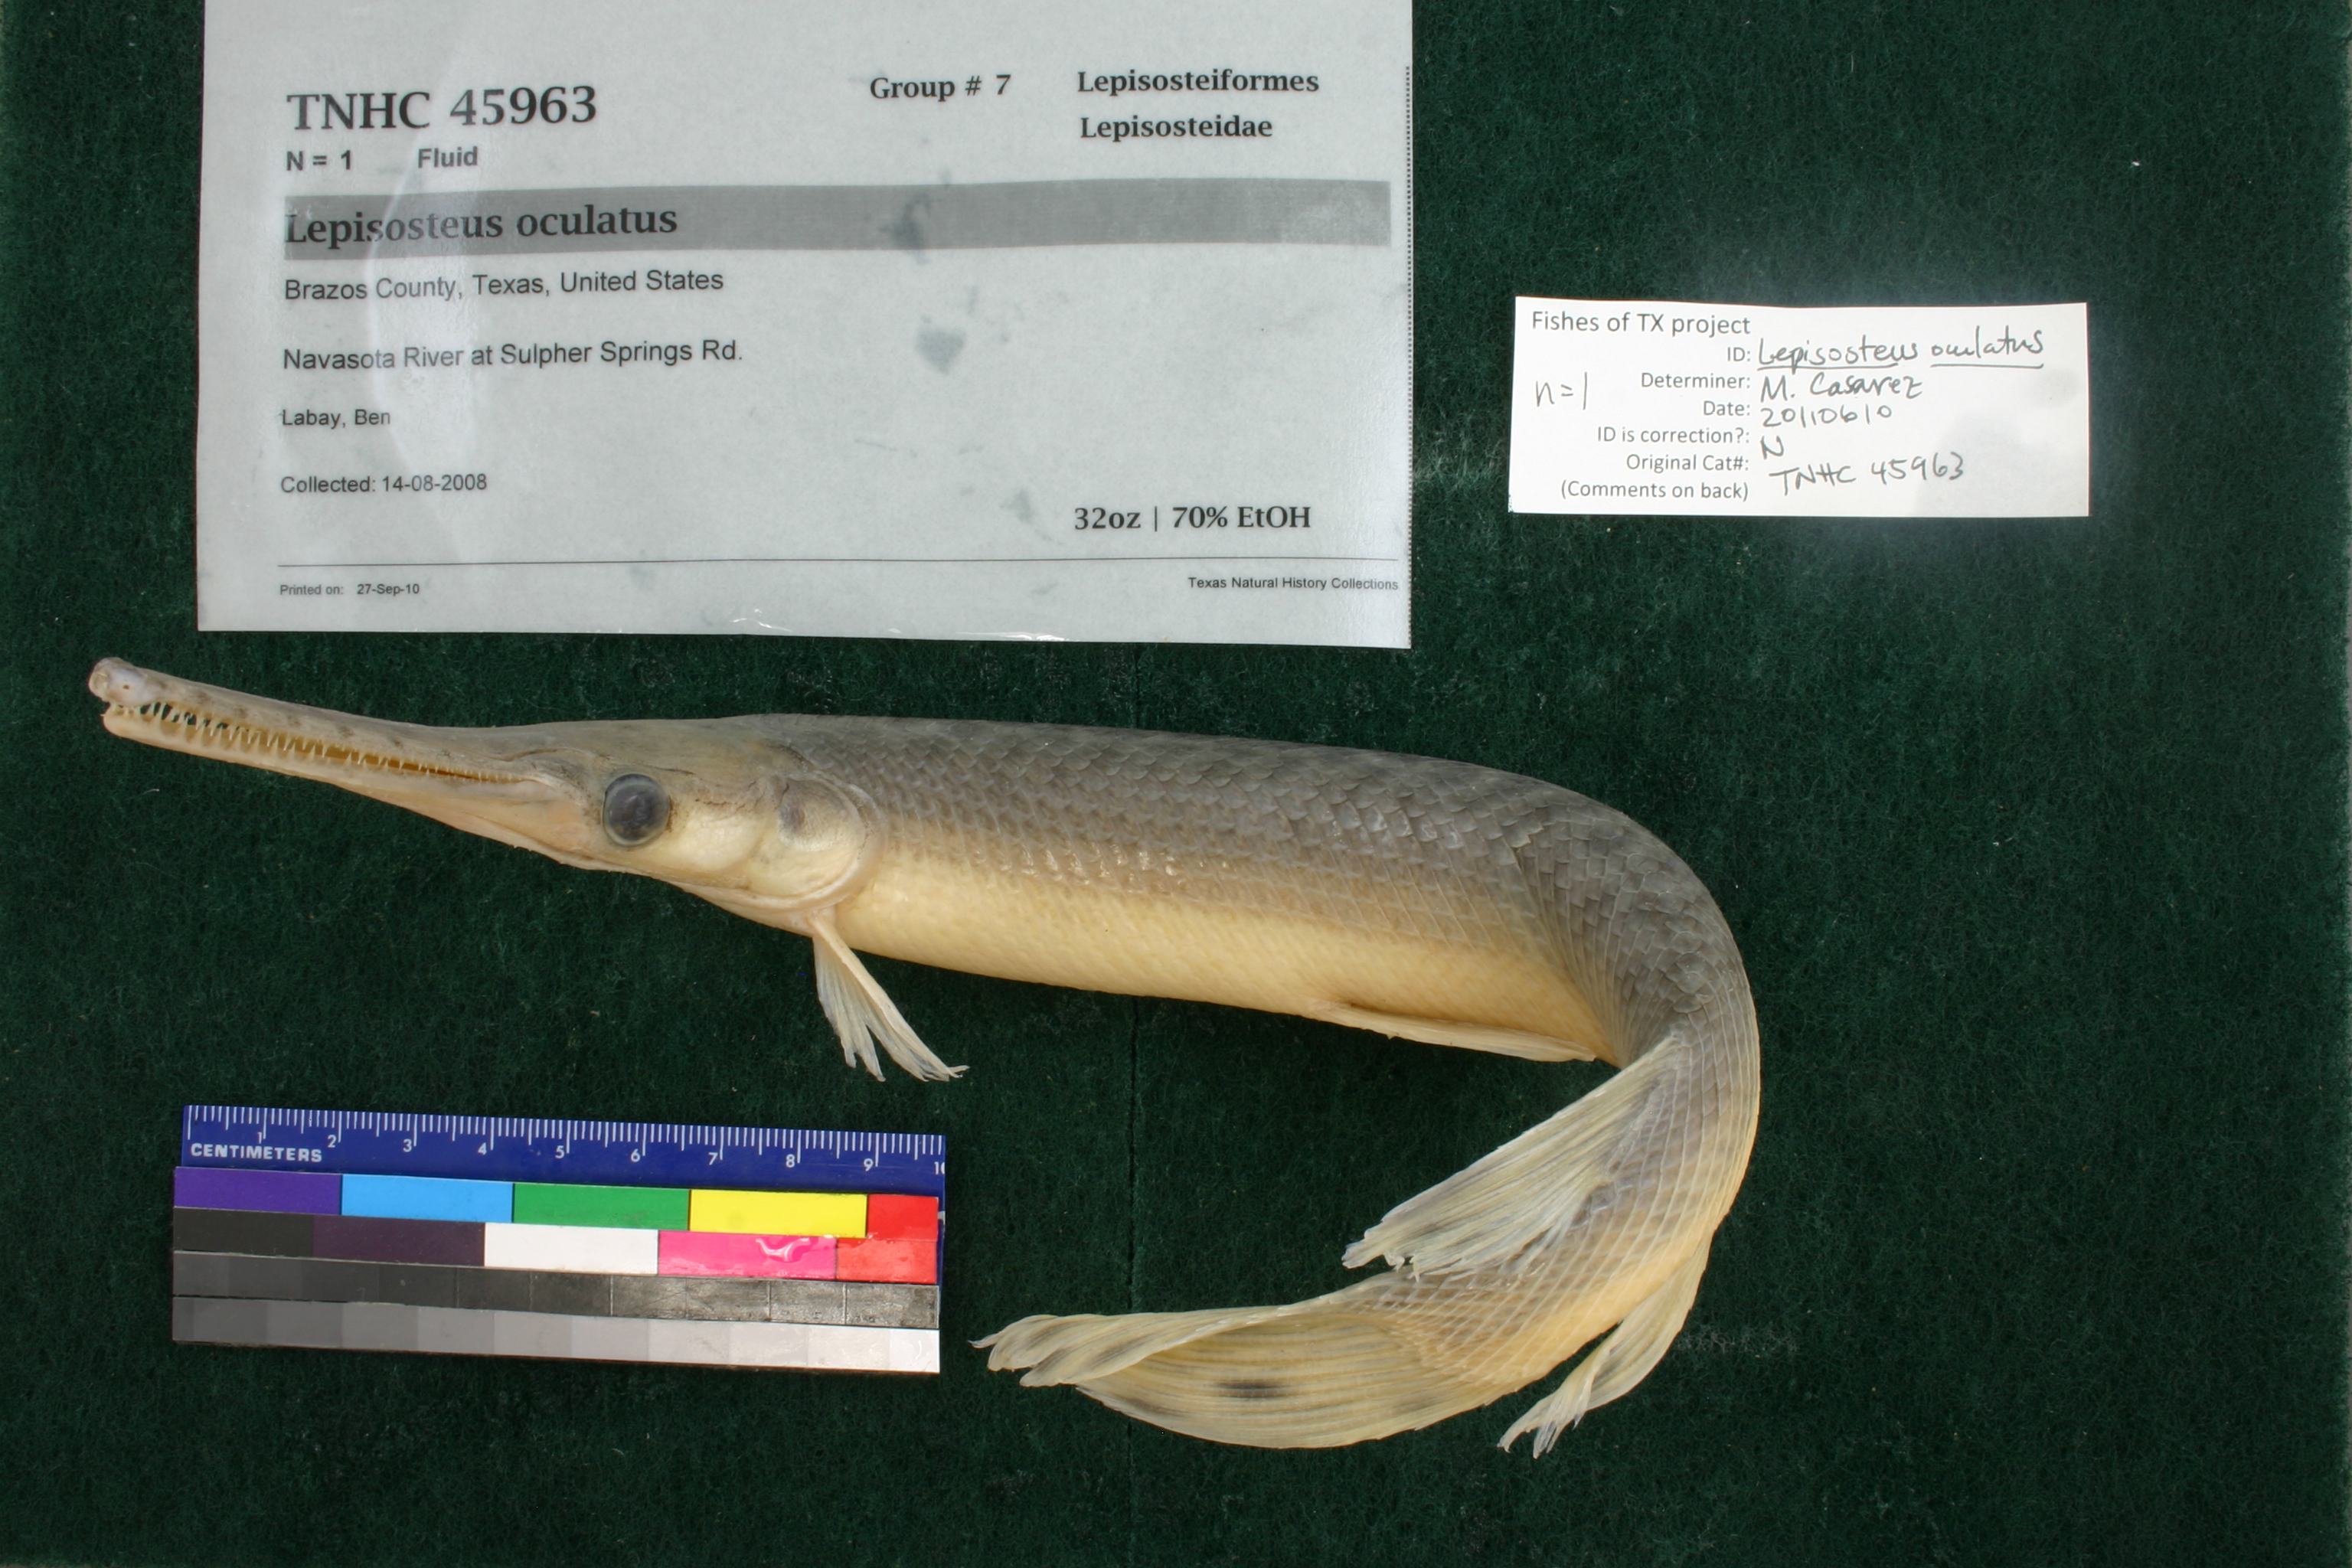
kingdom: Animalia
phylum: Chordata
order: Lepisosteiformes
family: Lepisosteidae
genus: Lepisosteus
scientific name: Lepisosteus oculatus
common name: Spotted gar
